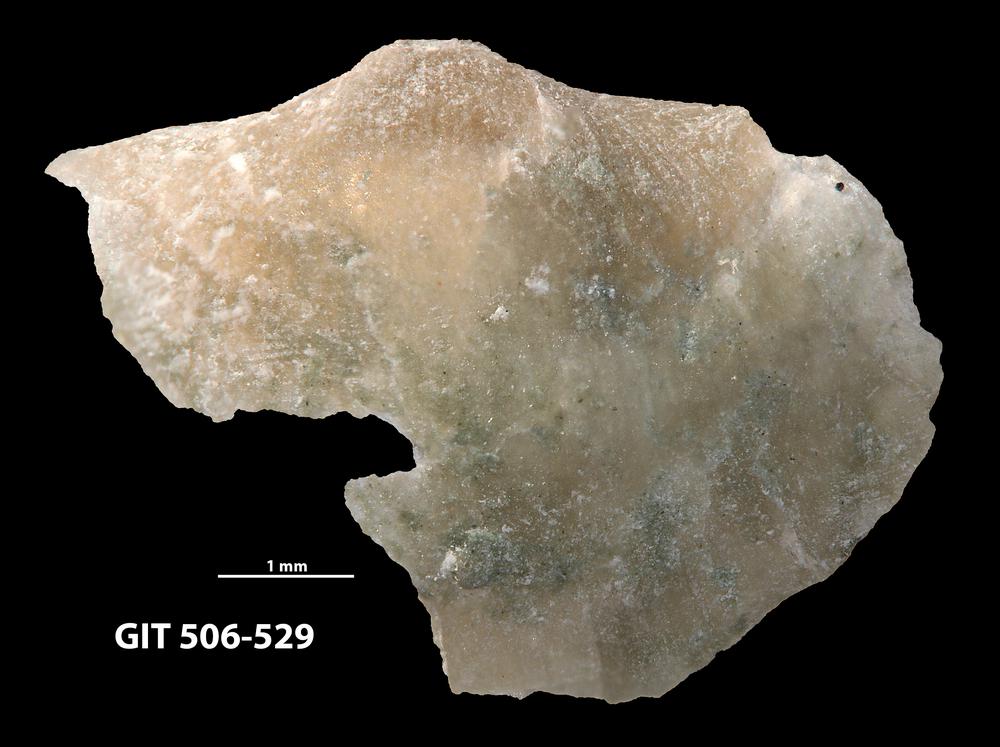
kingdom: Animalia
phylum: Brachiopoda
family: Oldhaminidae
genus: Eoplectodonta
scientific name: Eoplectodonta penkillensis
